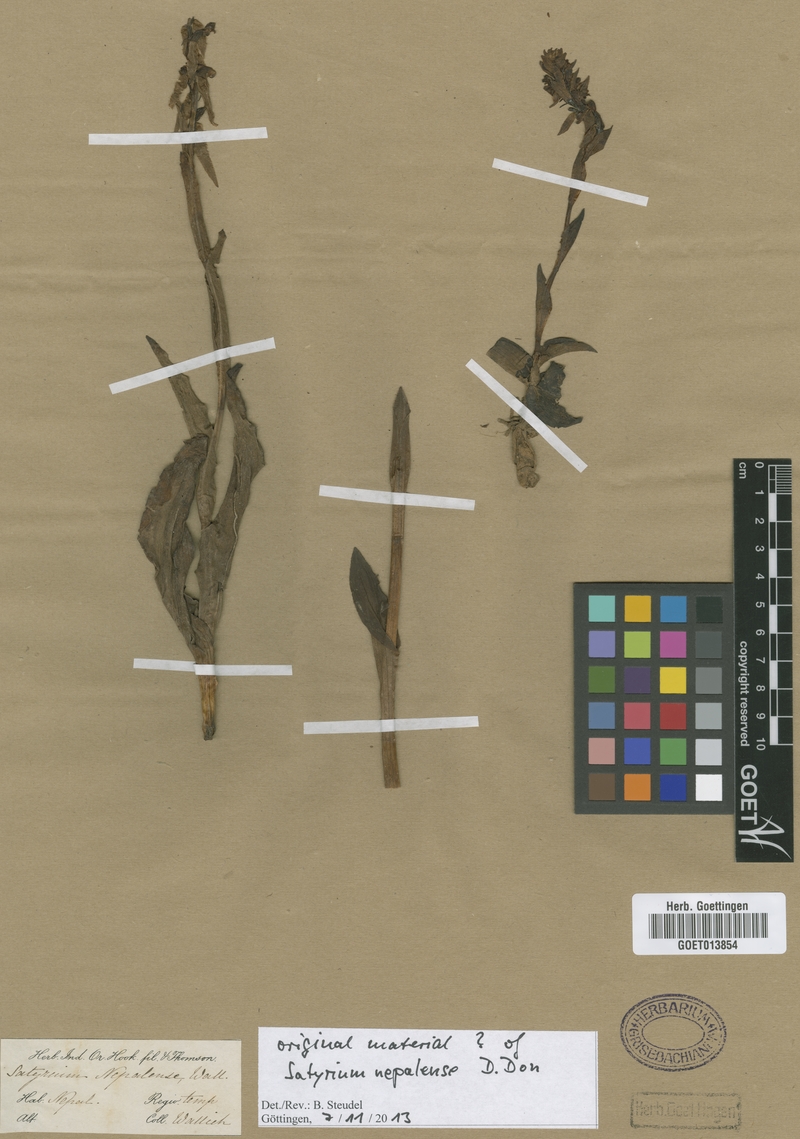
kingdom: Plantae
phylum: Tracheophyta
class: Liliopsida
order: Asparagales
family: Orchidaceae
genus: Satyrium
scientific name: Satyrium nepalense
